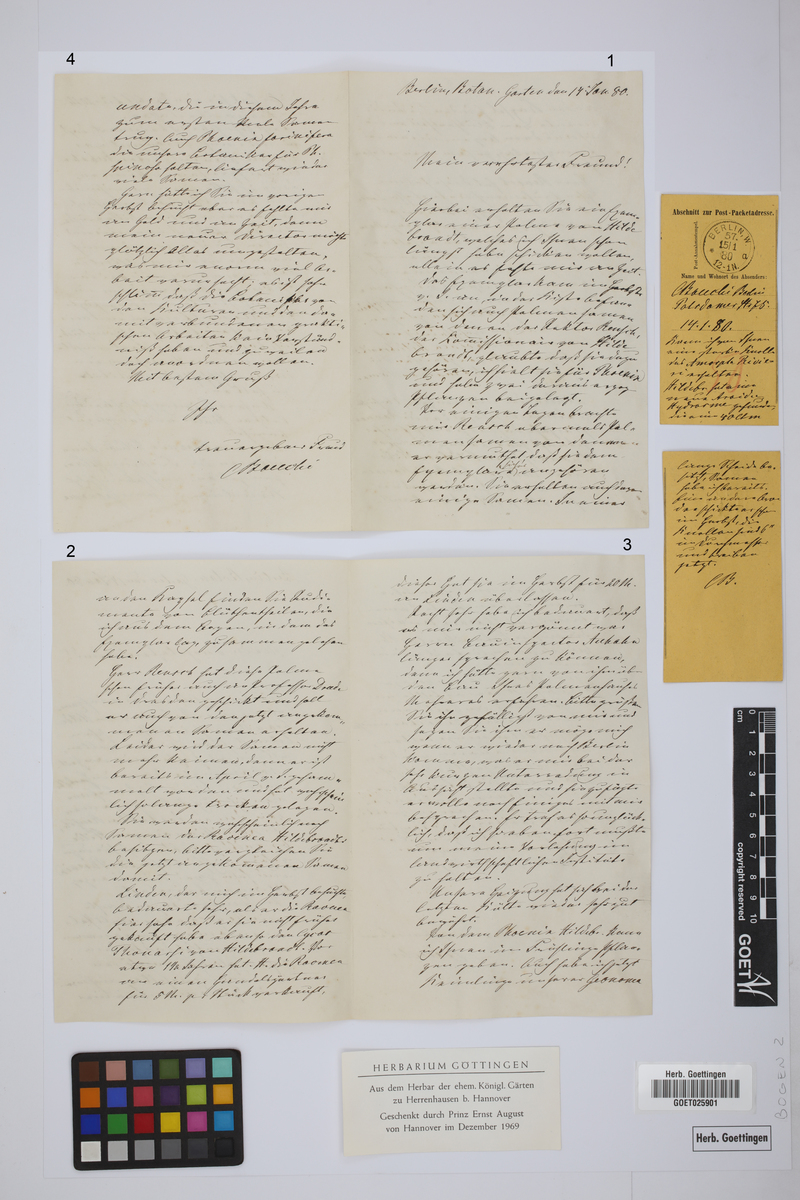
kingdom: Plantae
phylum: Tracheophyta
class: Liliopsida
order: Arecales
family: Arecaceae
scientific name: Arecaceae
